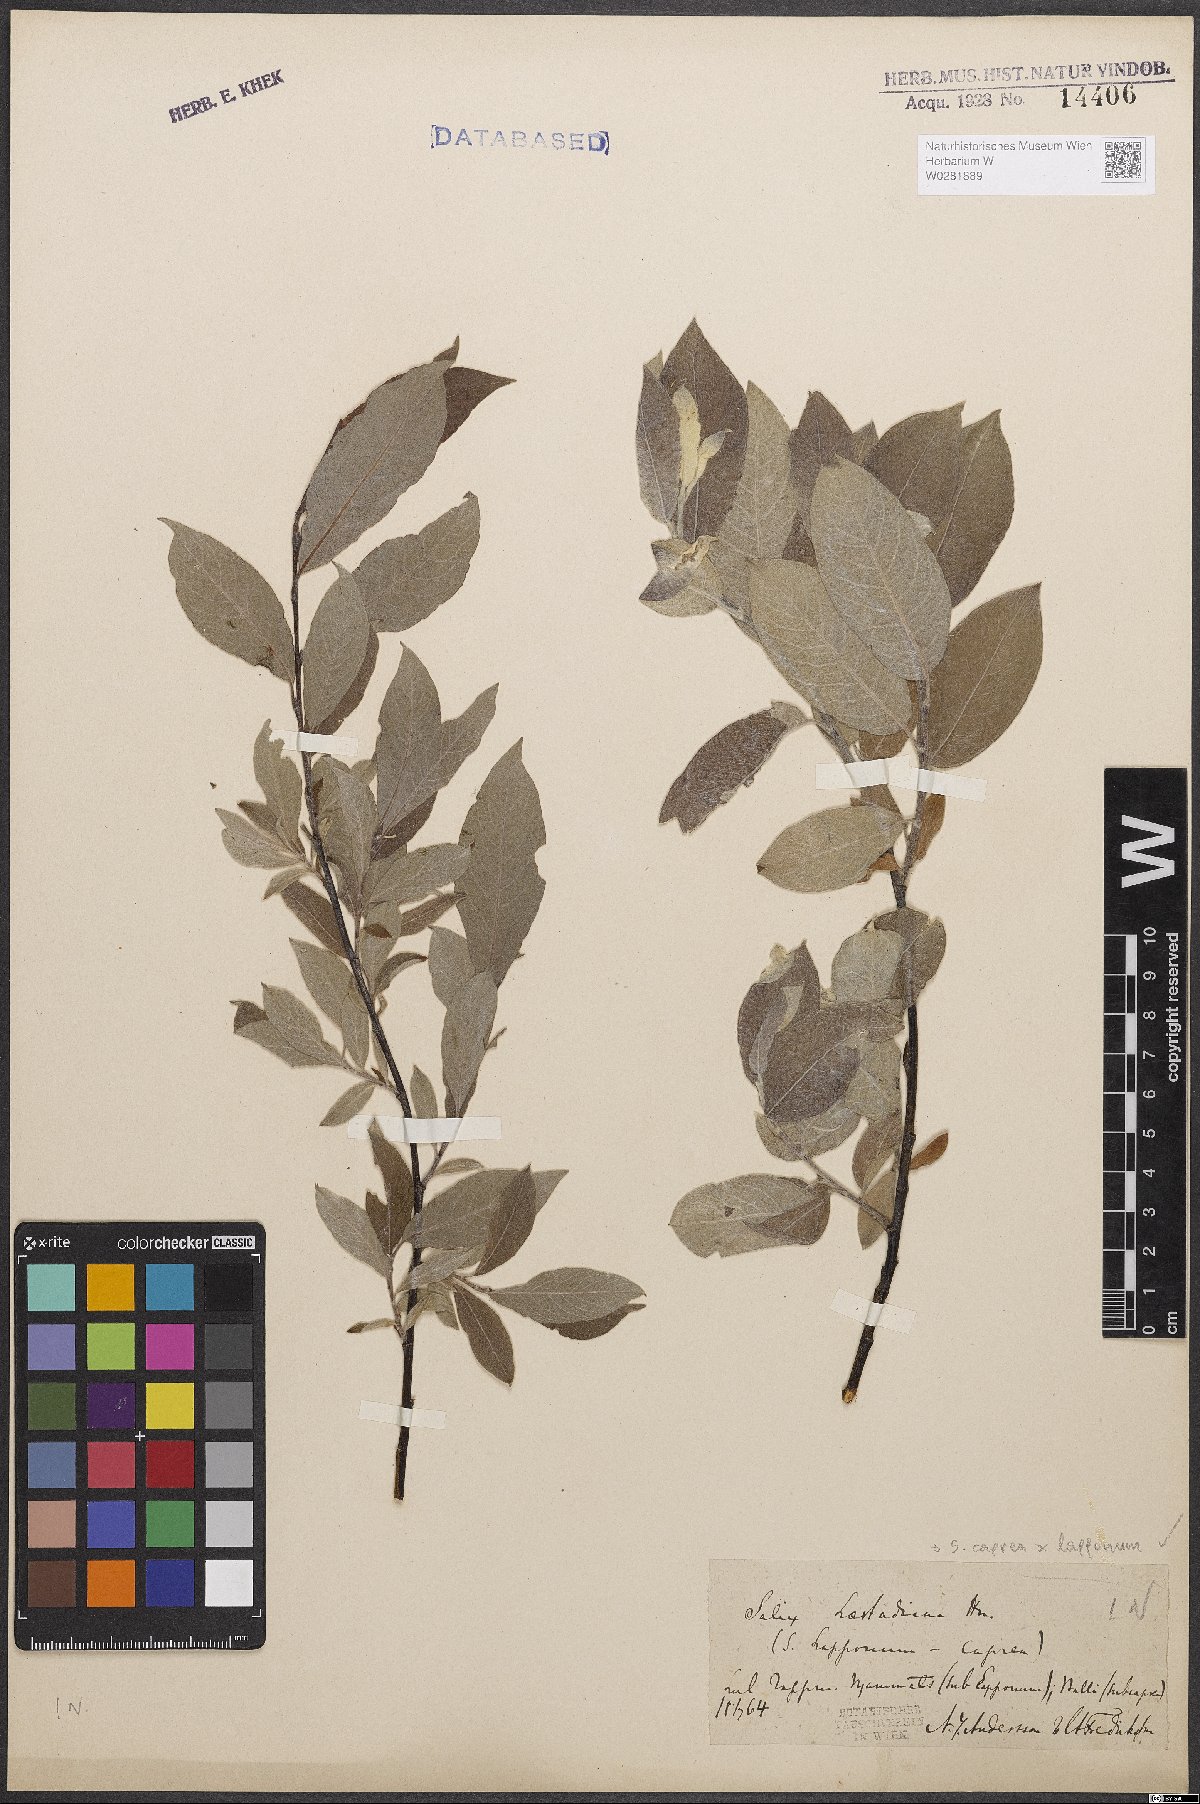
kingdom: Plantae
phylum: Tracheophyta
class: Magnoliopsida
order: Malpighiales
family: Salicaceae
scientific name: Salicaceae
